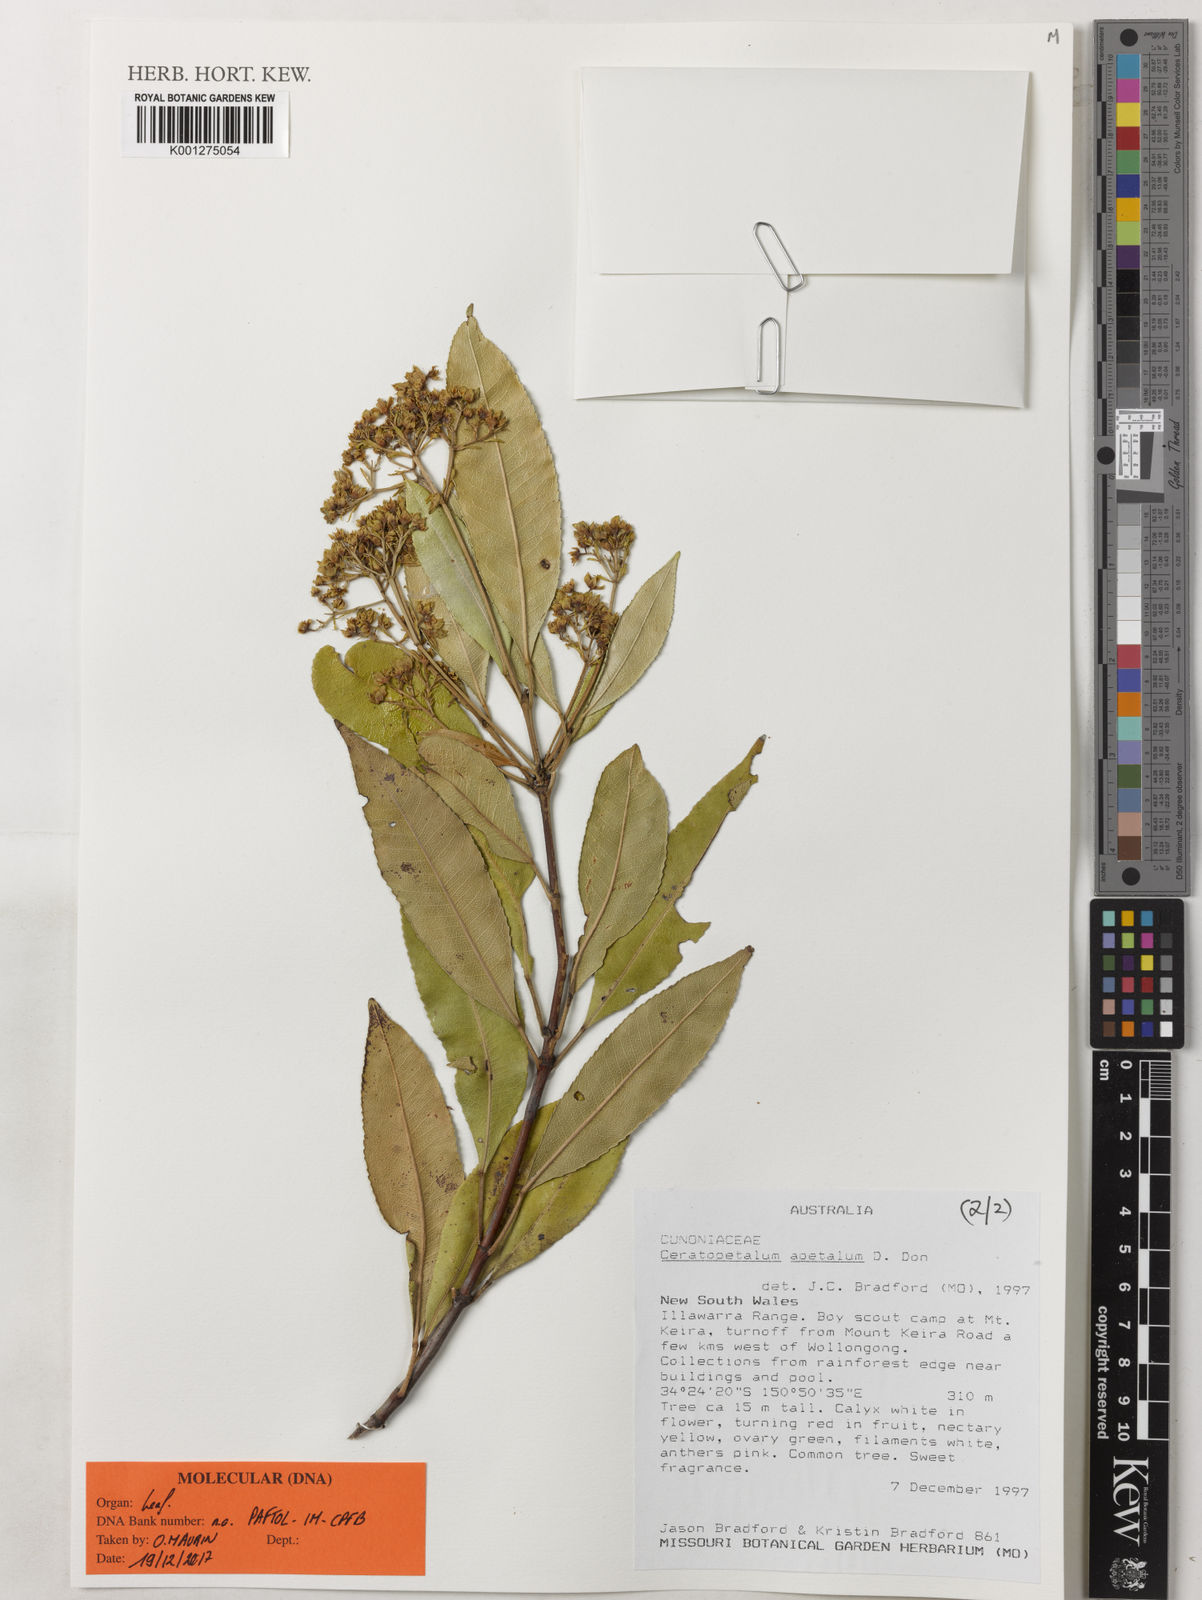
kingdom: Plantae
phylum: Tracheophyta
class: Magnoliopsida
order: Oxalidales
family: Cunoniaceae
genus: Ceratopetalum
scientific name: Ceratopetalum apetalum
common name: Scented satinwood
